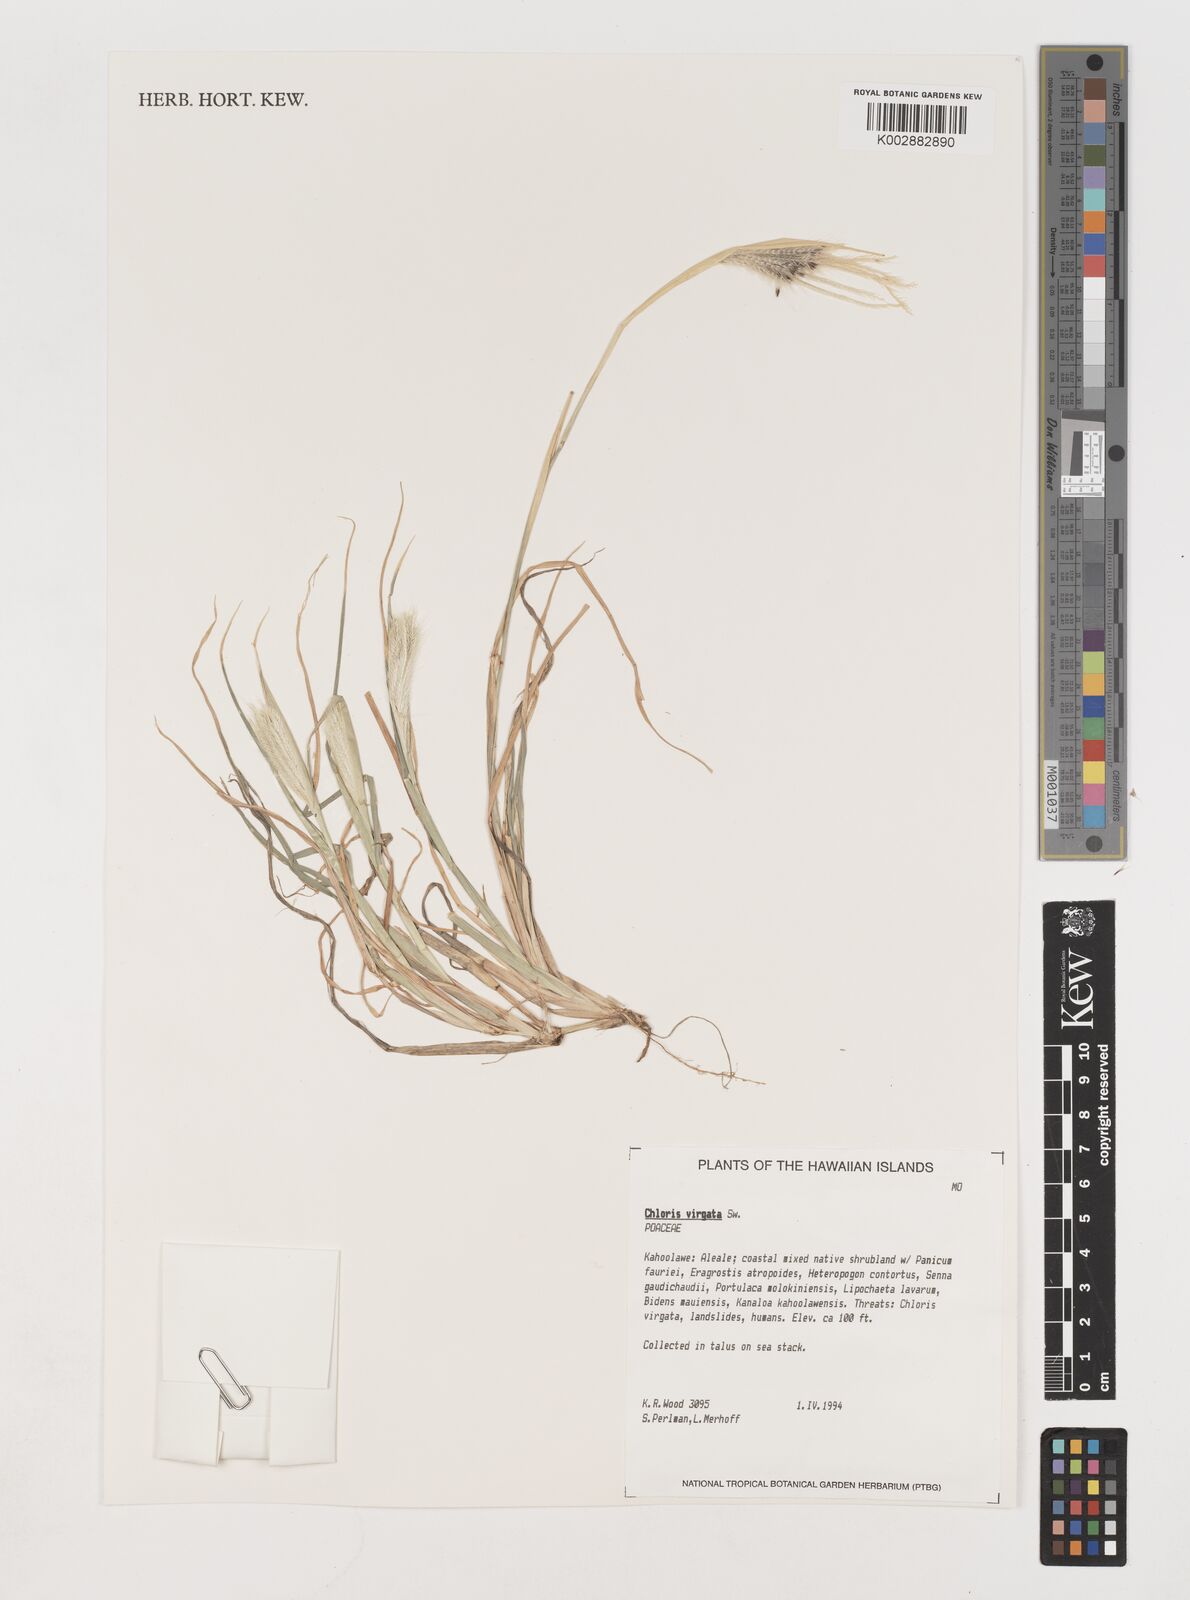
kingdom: Plantae
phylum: Tracheophyta
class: Liliopsida
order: Poales
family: Poaceae
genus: Chloris
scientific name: Chloris virgata
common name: Feathery rhodes-grass
